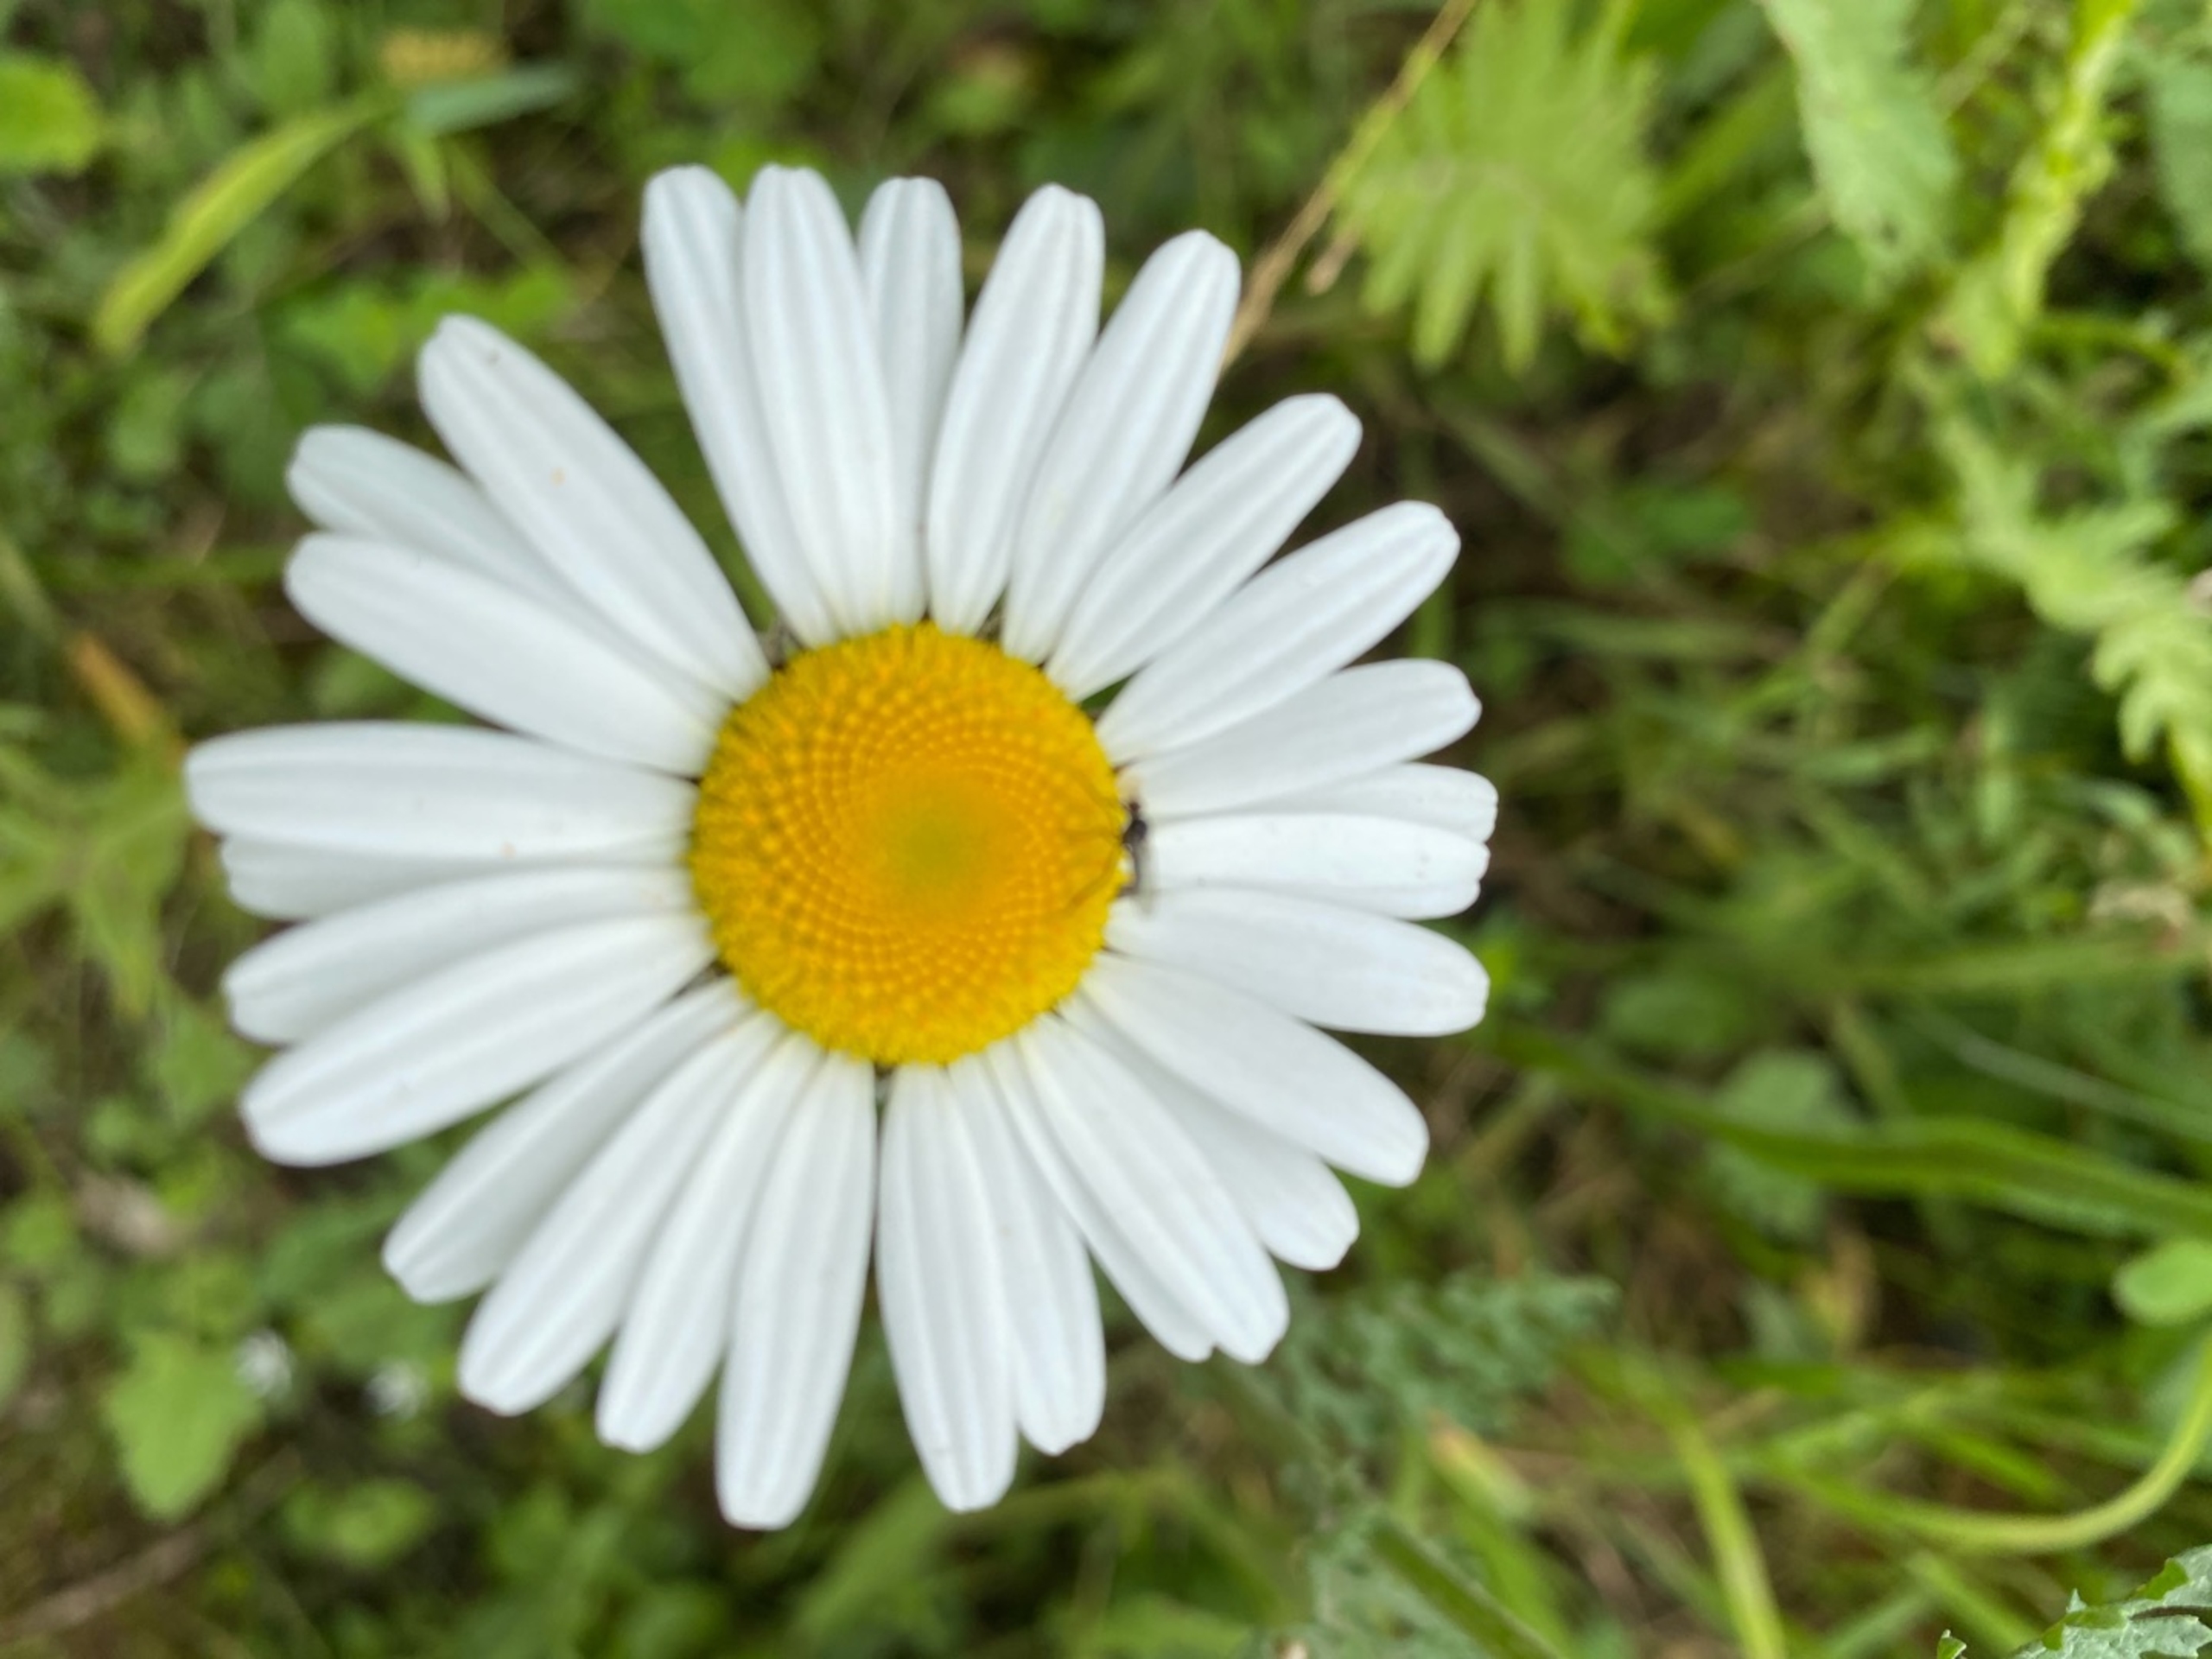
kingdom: Plantae
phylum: Tracheophyta
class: Magnoliopsida
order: Asterales
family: Asteraceae
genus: Leucanthemum
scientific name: Leucanthemum vulgare
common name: Hvid okseøje
